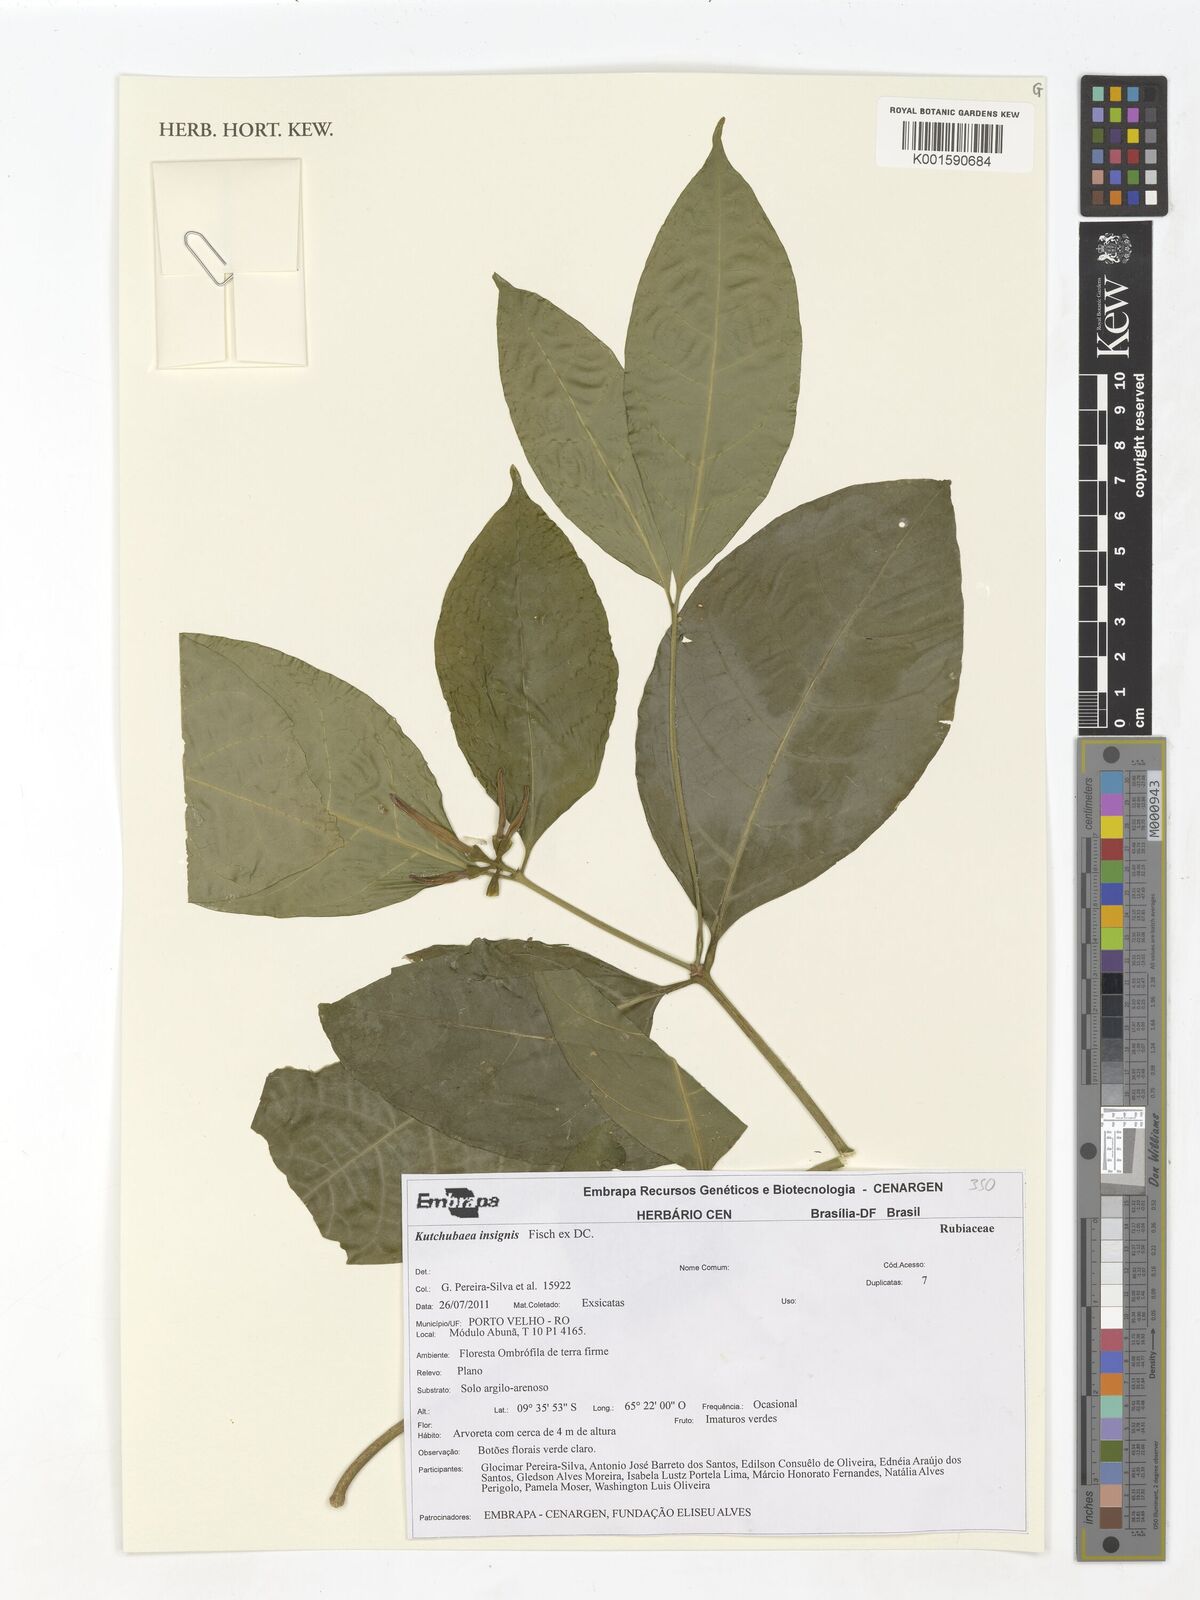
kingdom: Plantae
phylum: Tracheophyta
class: Magnoliopsida
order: Gentianales
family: Rubiaceae
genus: Kutchubaea
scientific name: Kutchubaea insignis
